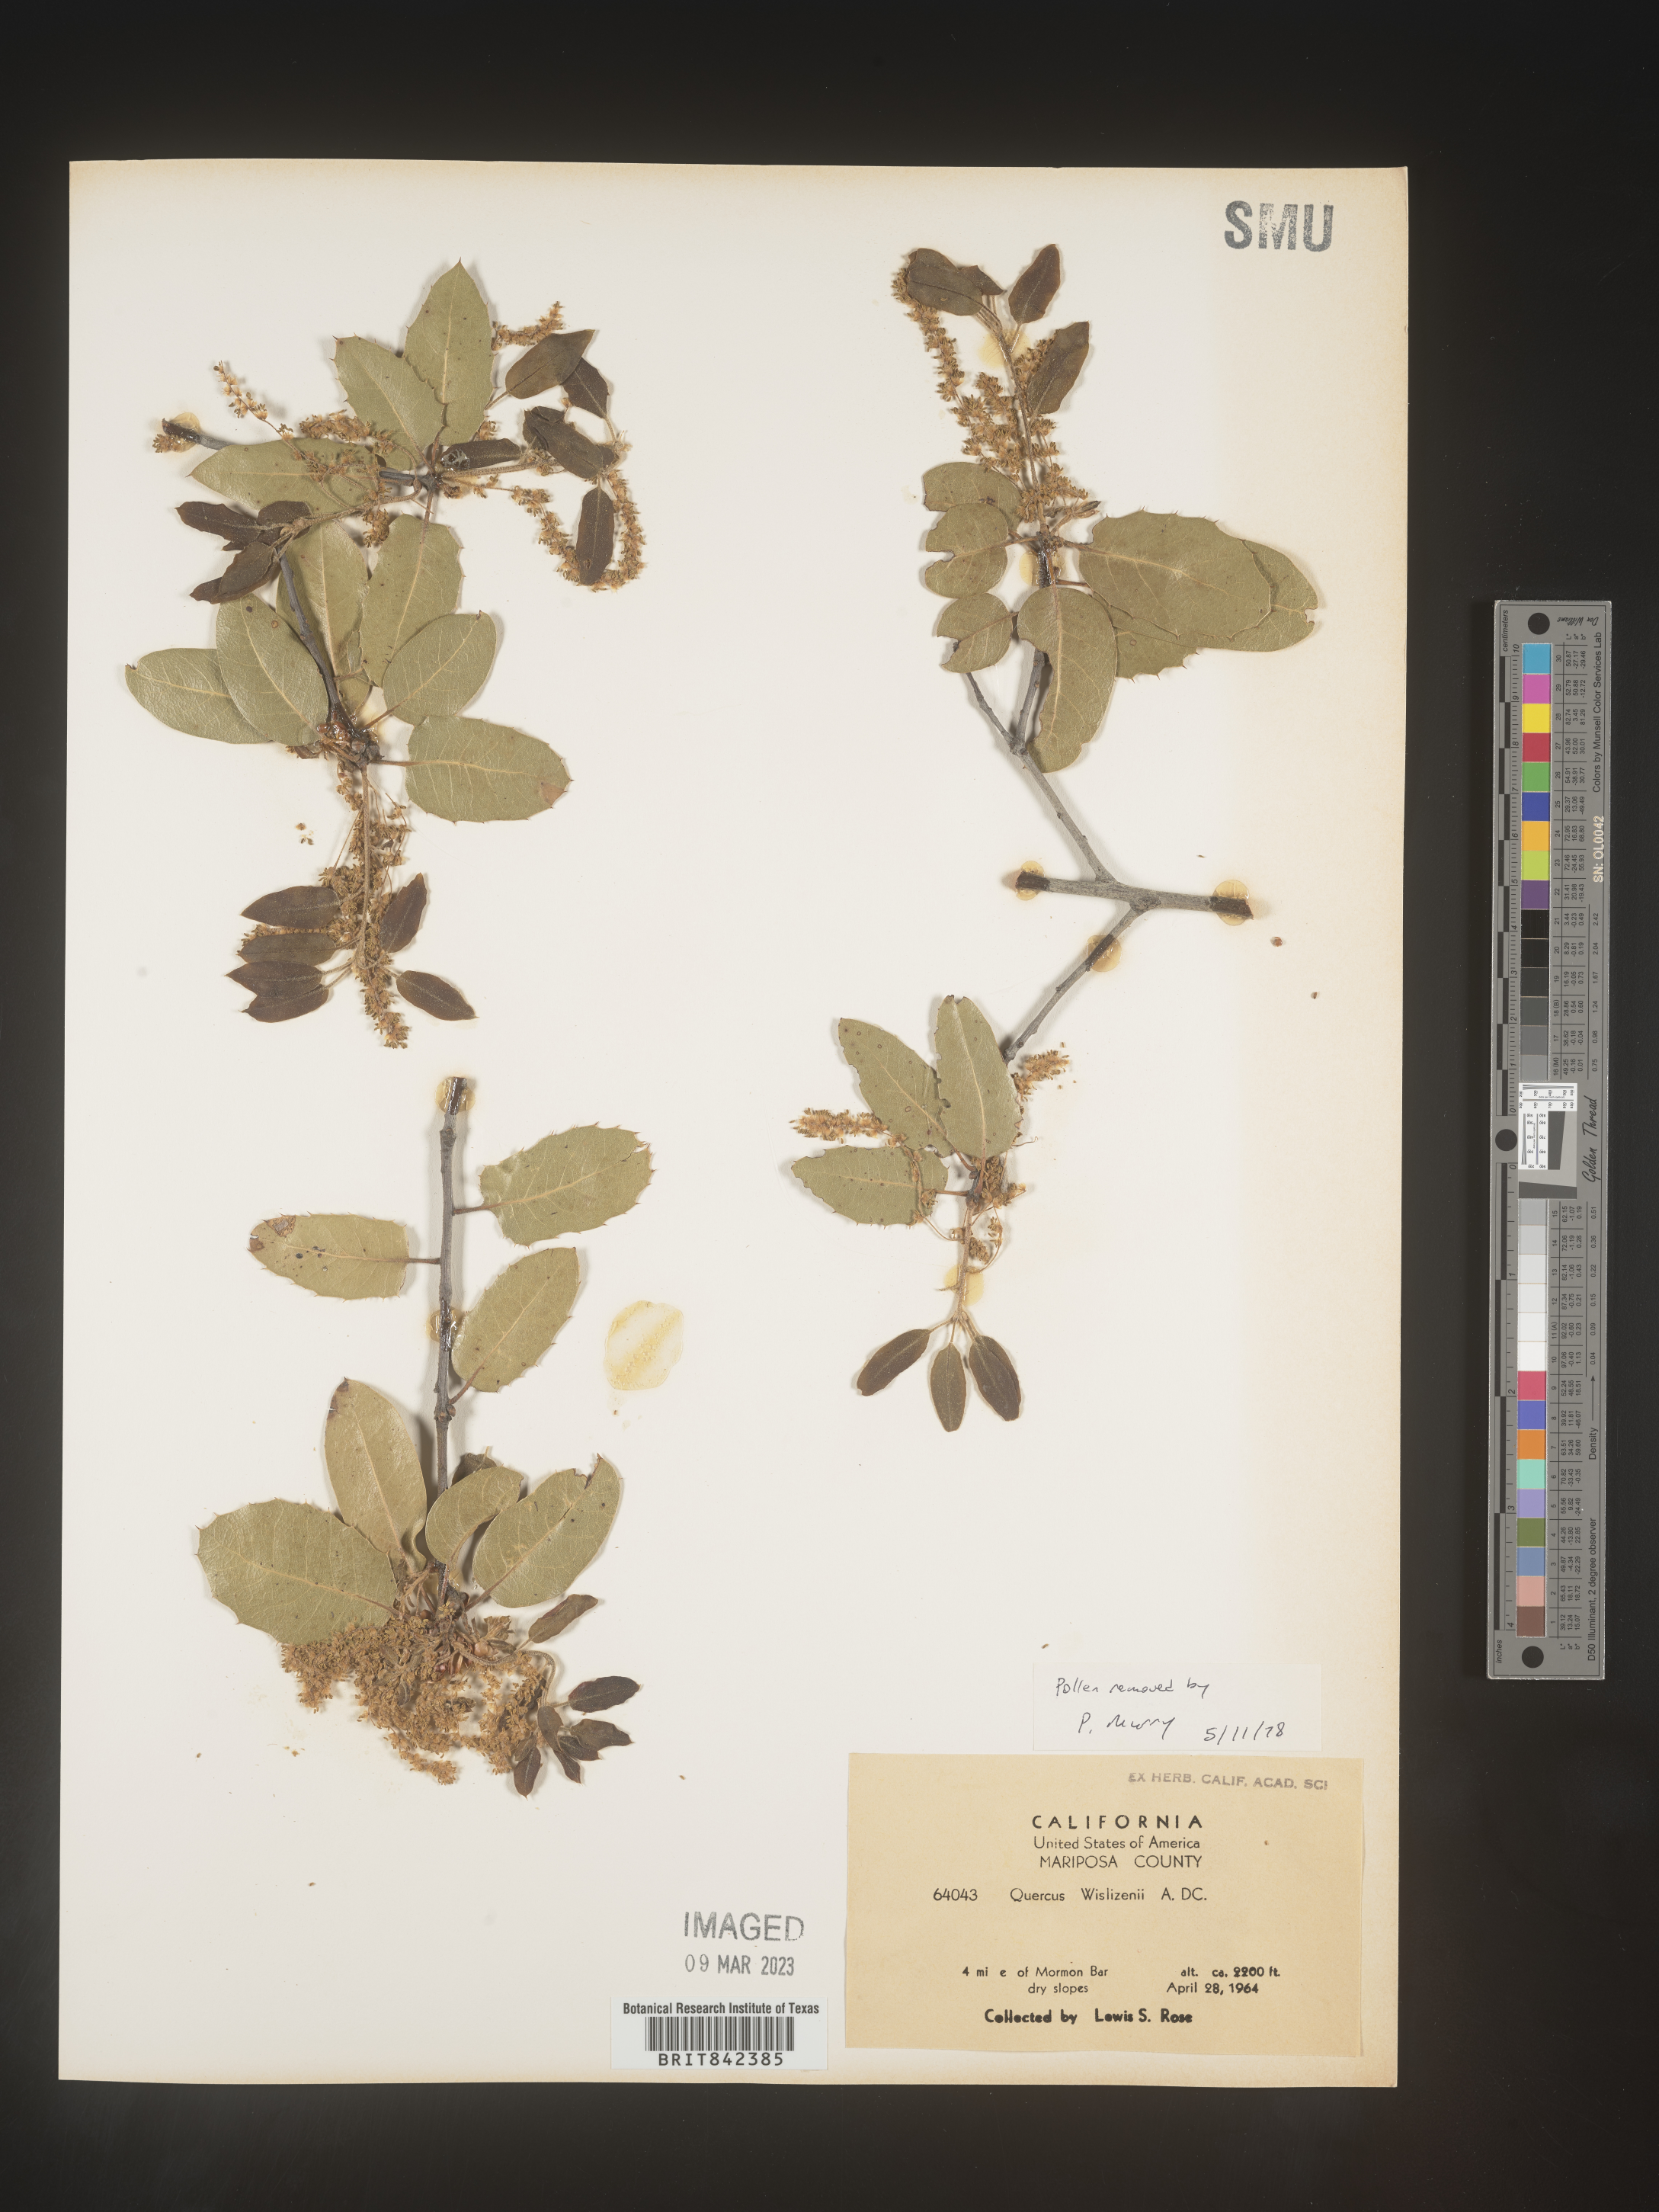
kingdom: Plantae
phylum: Tracheophyta
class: Magnoliopsida
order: Fagales
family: Fagaceae
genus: Quercus
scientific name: Quercus wislizeni
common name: Interior live oak
